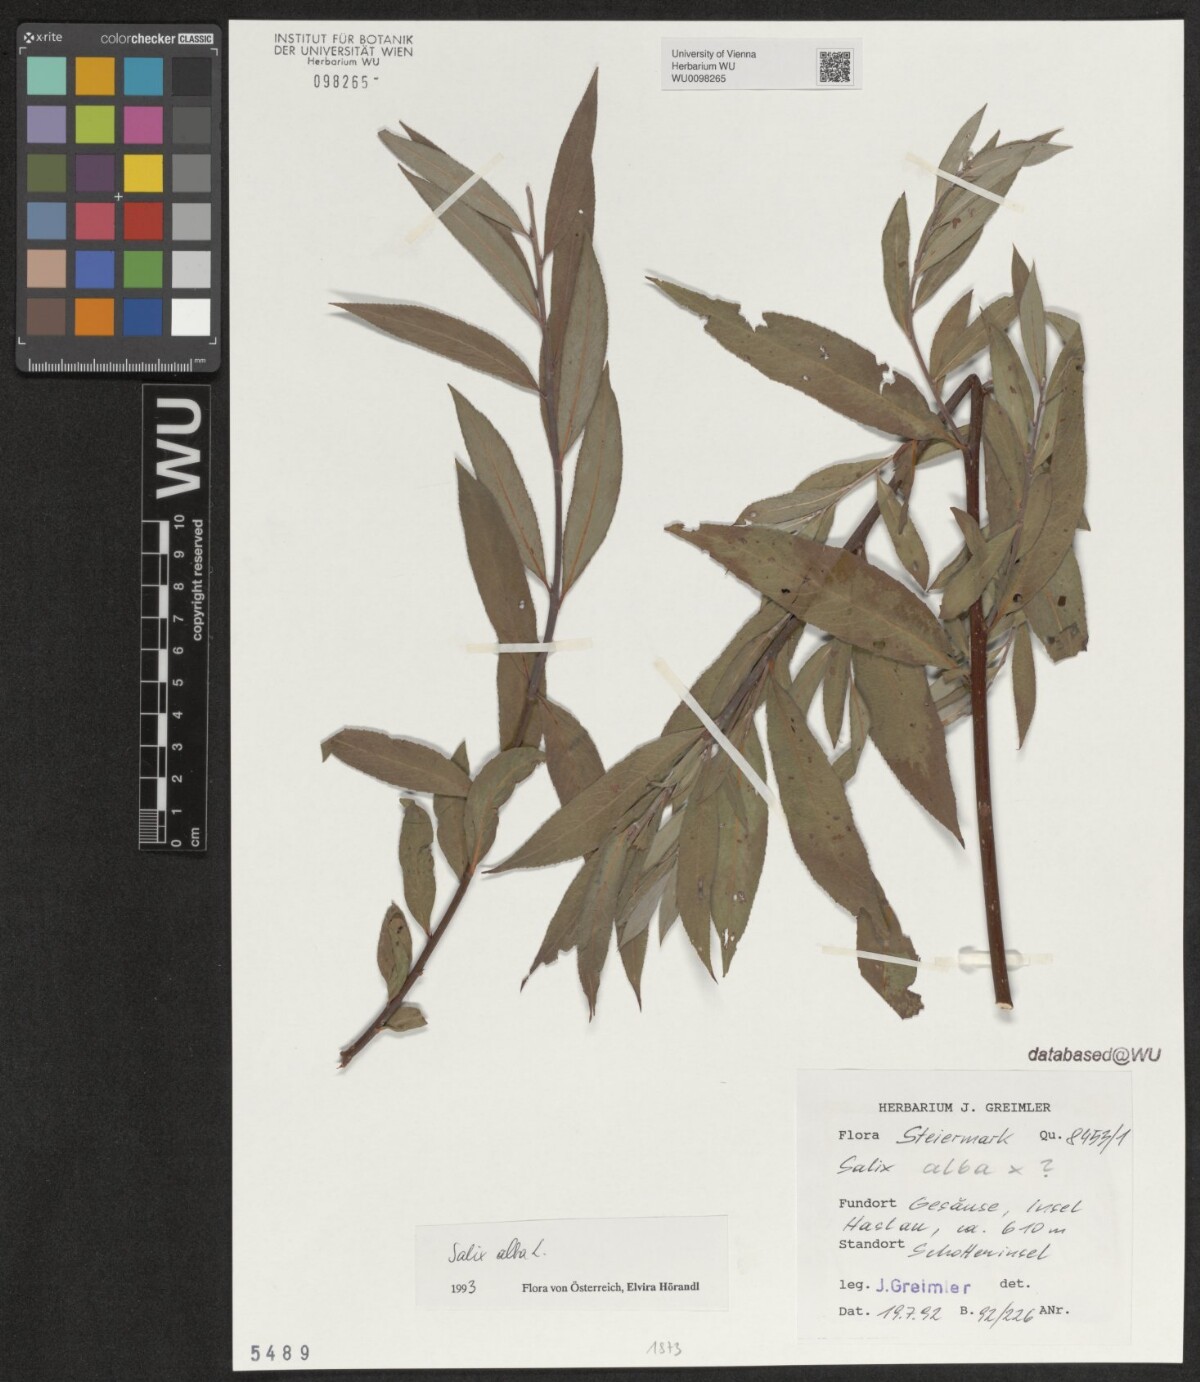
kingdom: Plantae
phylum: Tracheophyta
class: Magnoliopsida
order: Malpighiales
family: Salicaceae
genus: Salix
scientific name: Salix alba
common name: White willow
